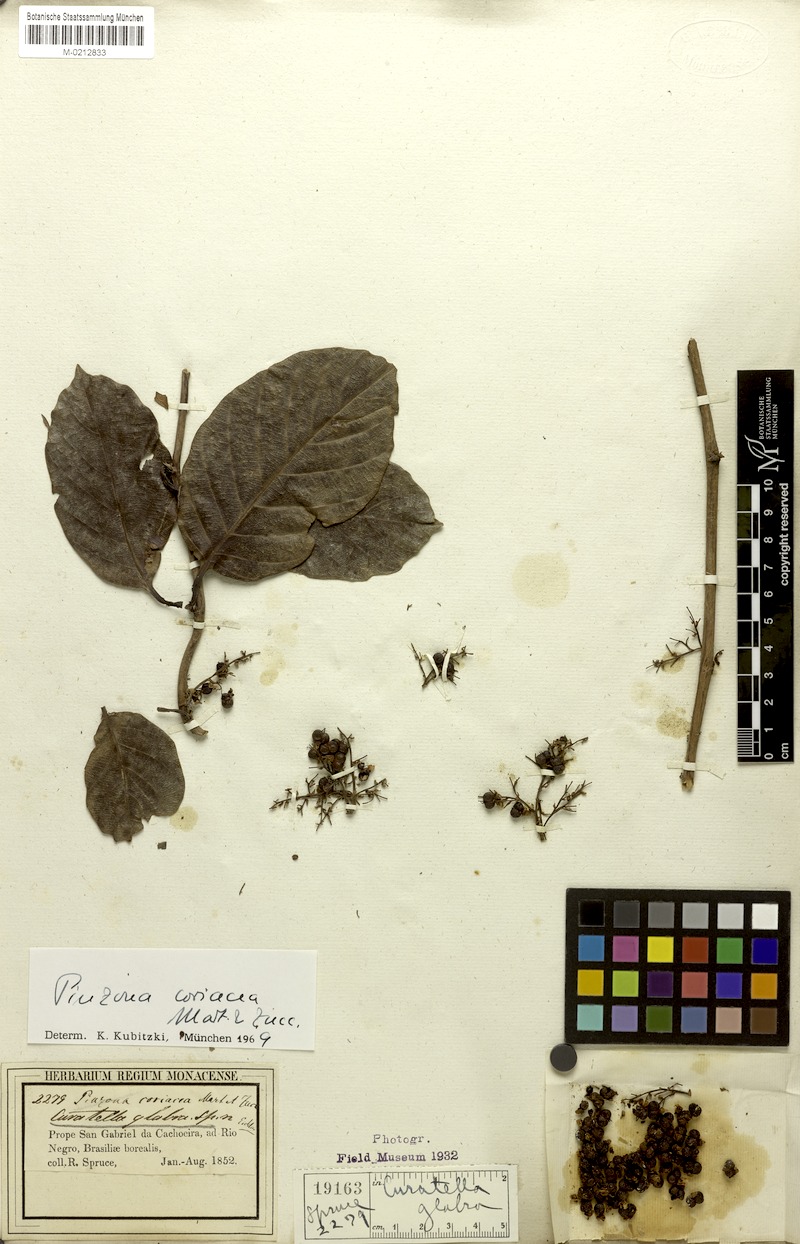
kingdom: Plantae
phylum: Tracheophyta
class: Magnoliopsida
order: Dilleniales
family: Dilleniaceae
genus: Pinzona
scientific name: Pinzona coriacea
